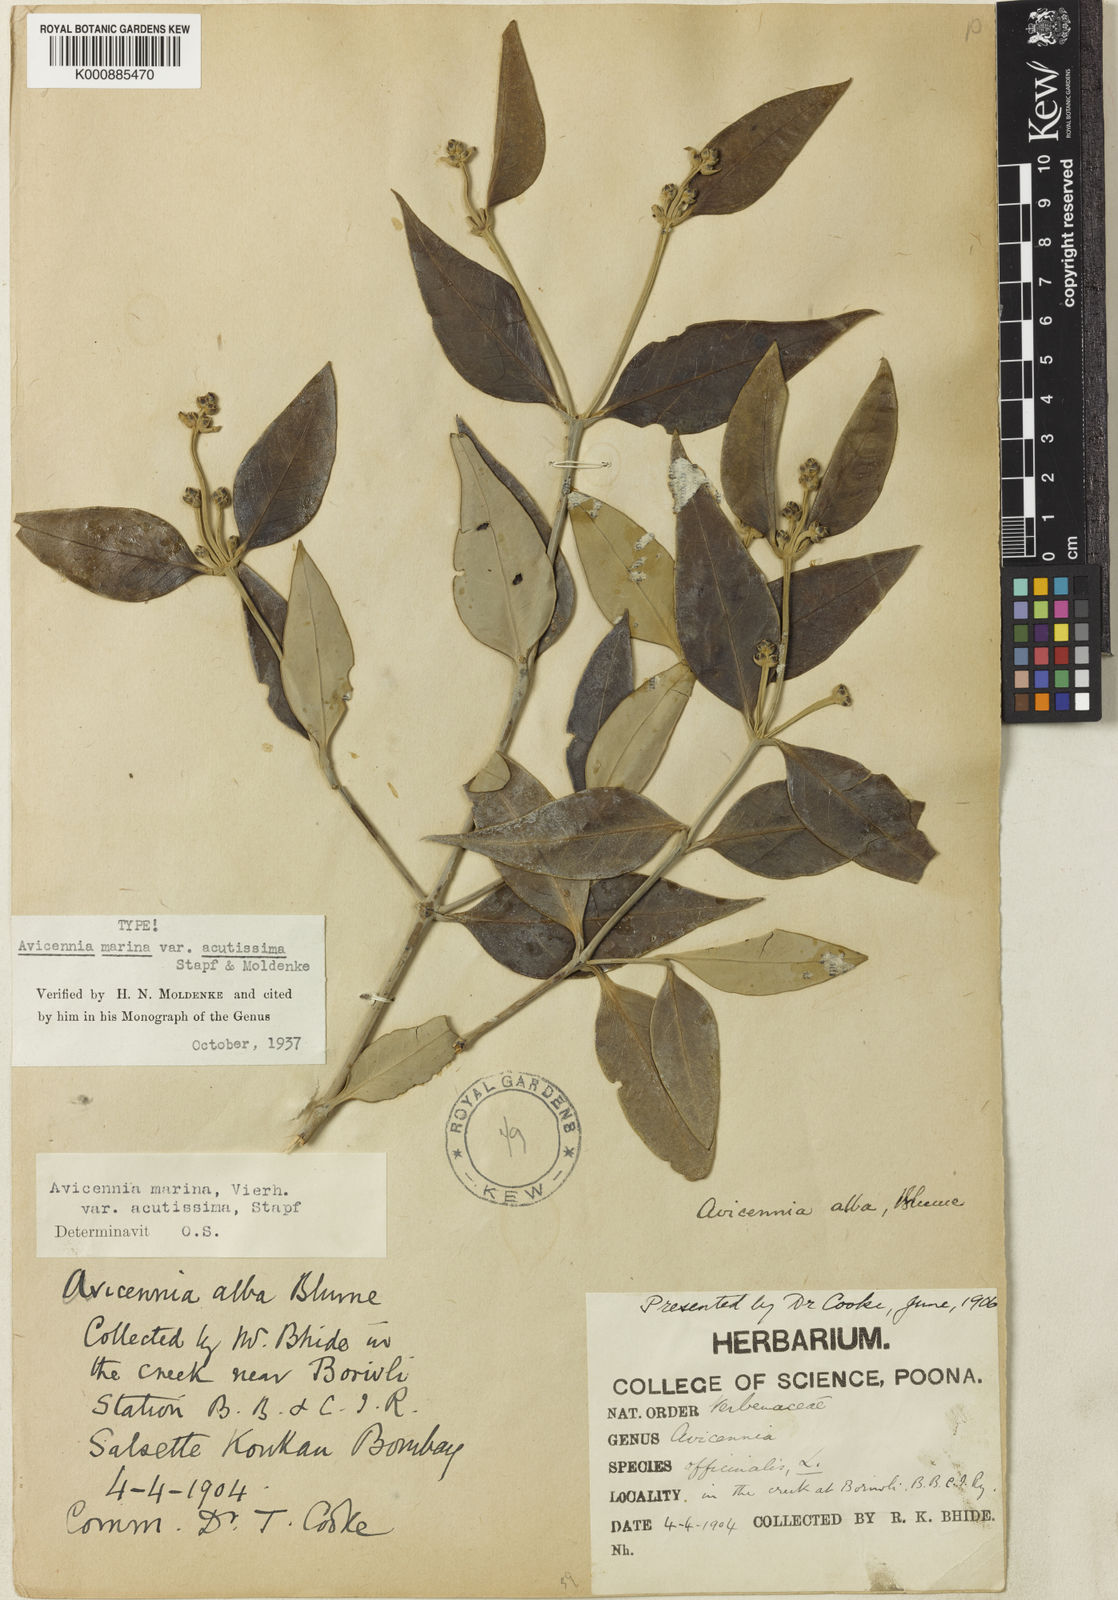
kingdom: Plantae
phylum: Tracheophyta
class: Magnoliopsida
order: Lamiales
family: Acanthaceae
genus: Avicennia
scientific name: Avicennia marina
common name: Gray mangrove
